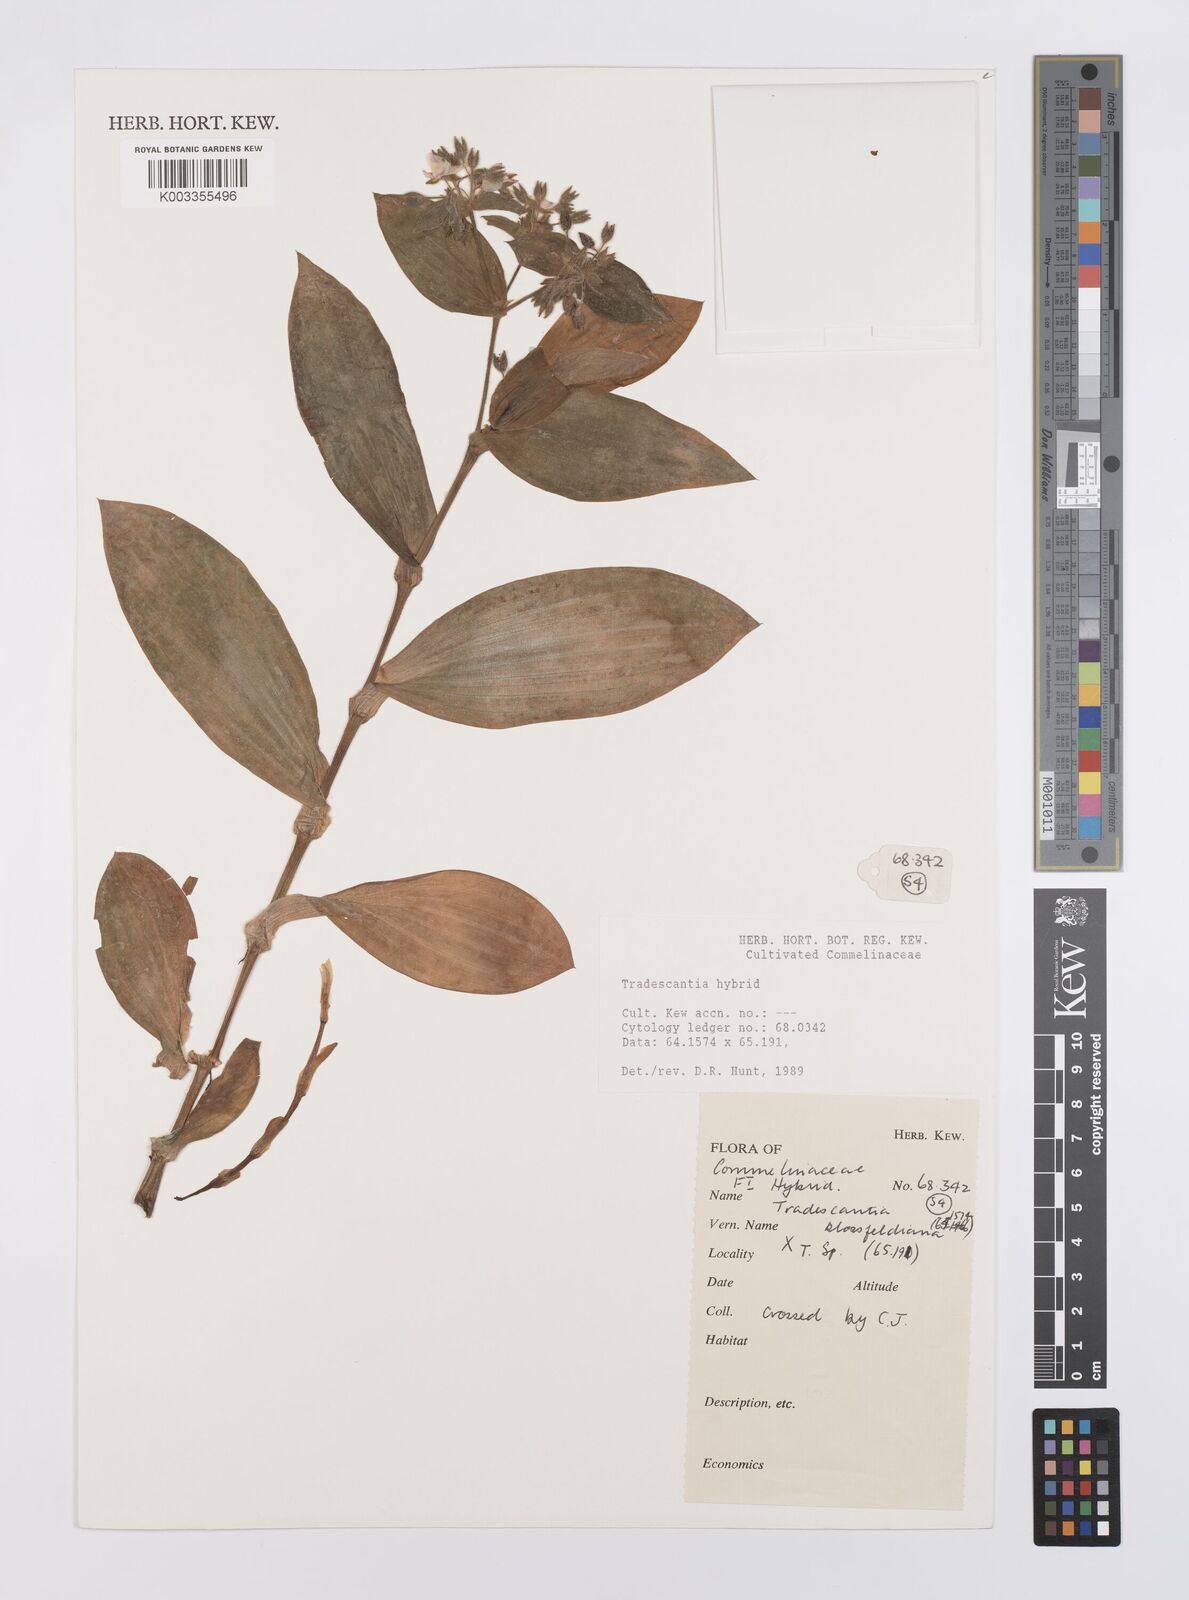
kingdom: Plantae
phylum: Tracheophyta
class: Liliopsida
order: Commelinales
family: Commelinaceae
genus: Tradescantia
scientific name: Tradescantia cerinthoides
